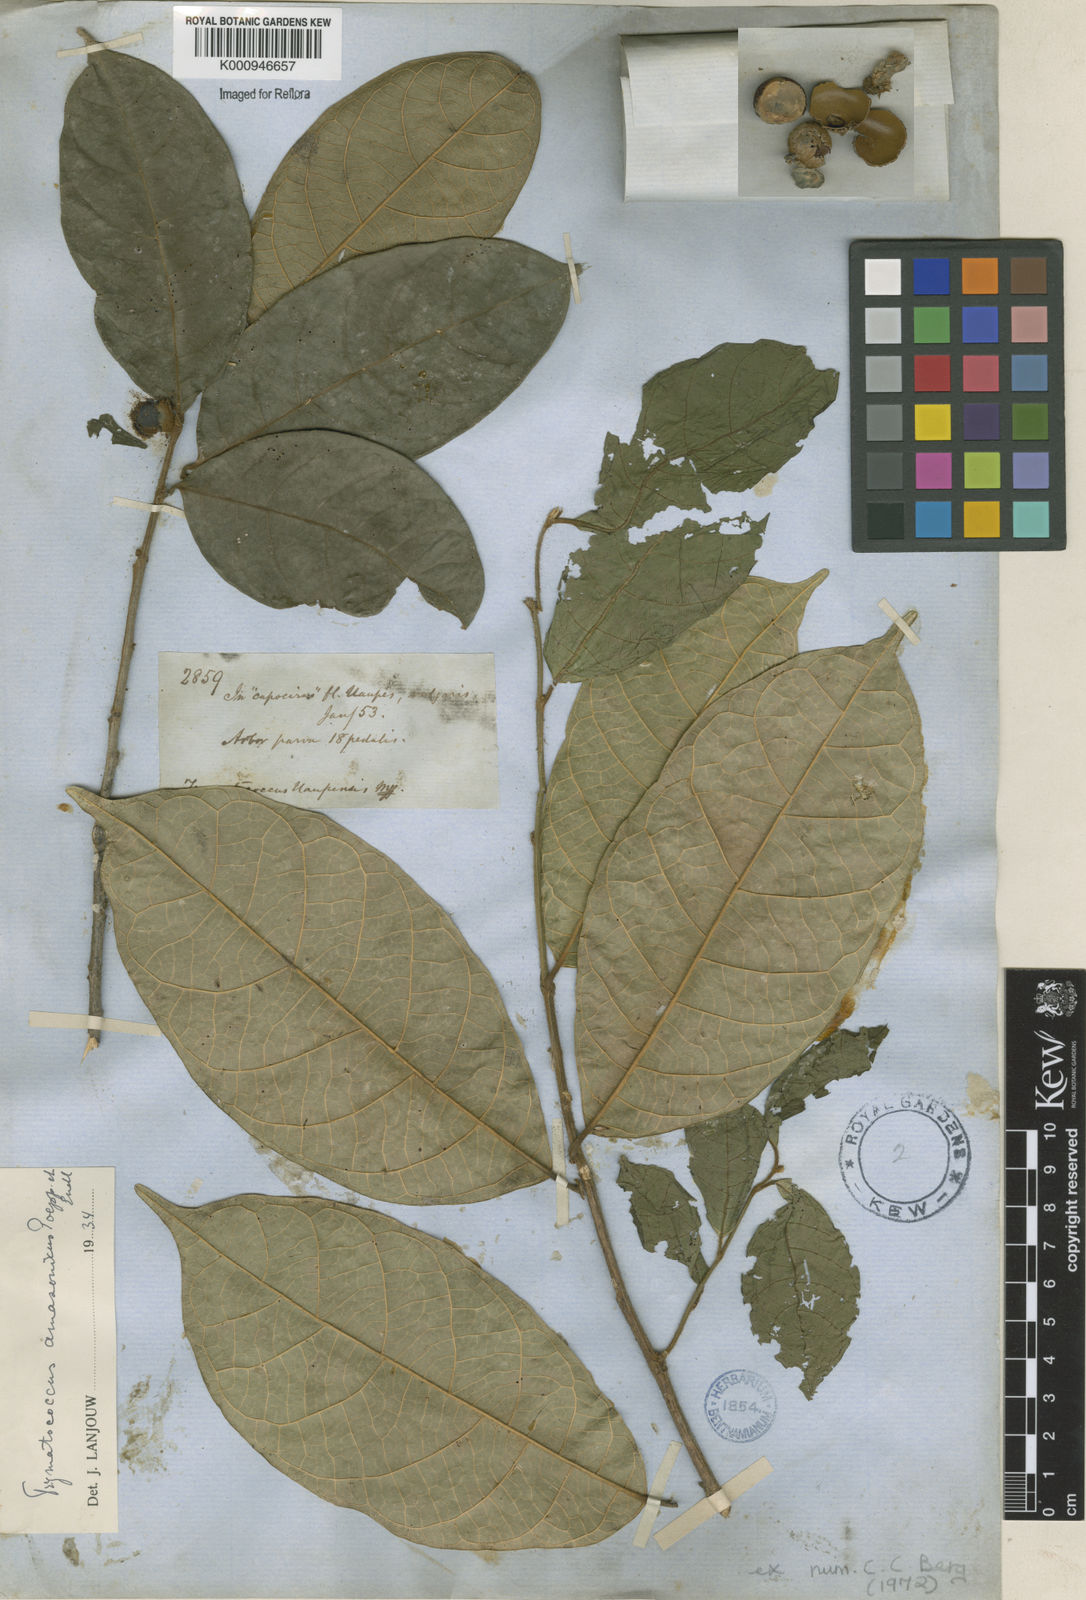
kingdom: Plantae
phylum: Tracheophyta
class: Magnoliopsida
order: Rosales
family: Moraceae
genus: Brosimum
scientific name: Brosimum amazonicum
